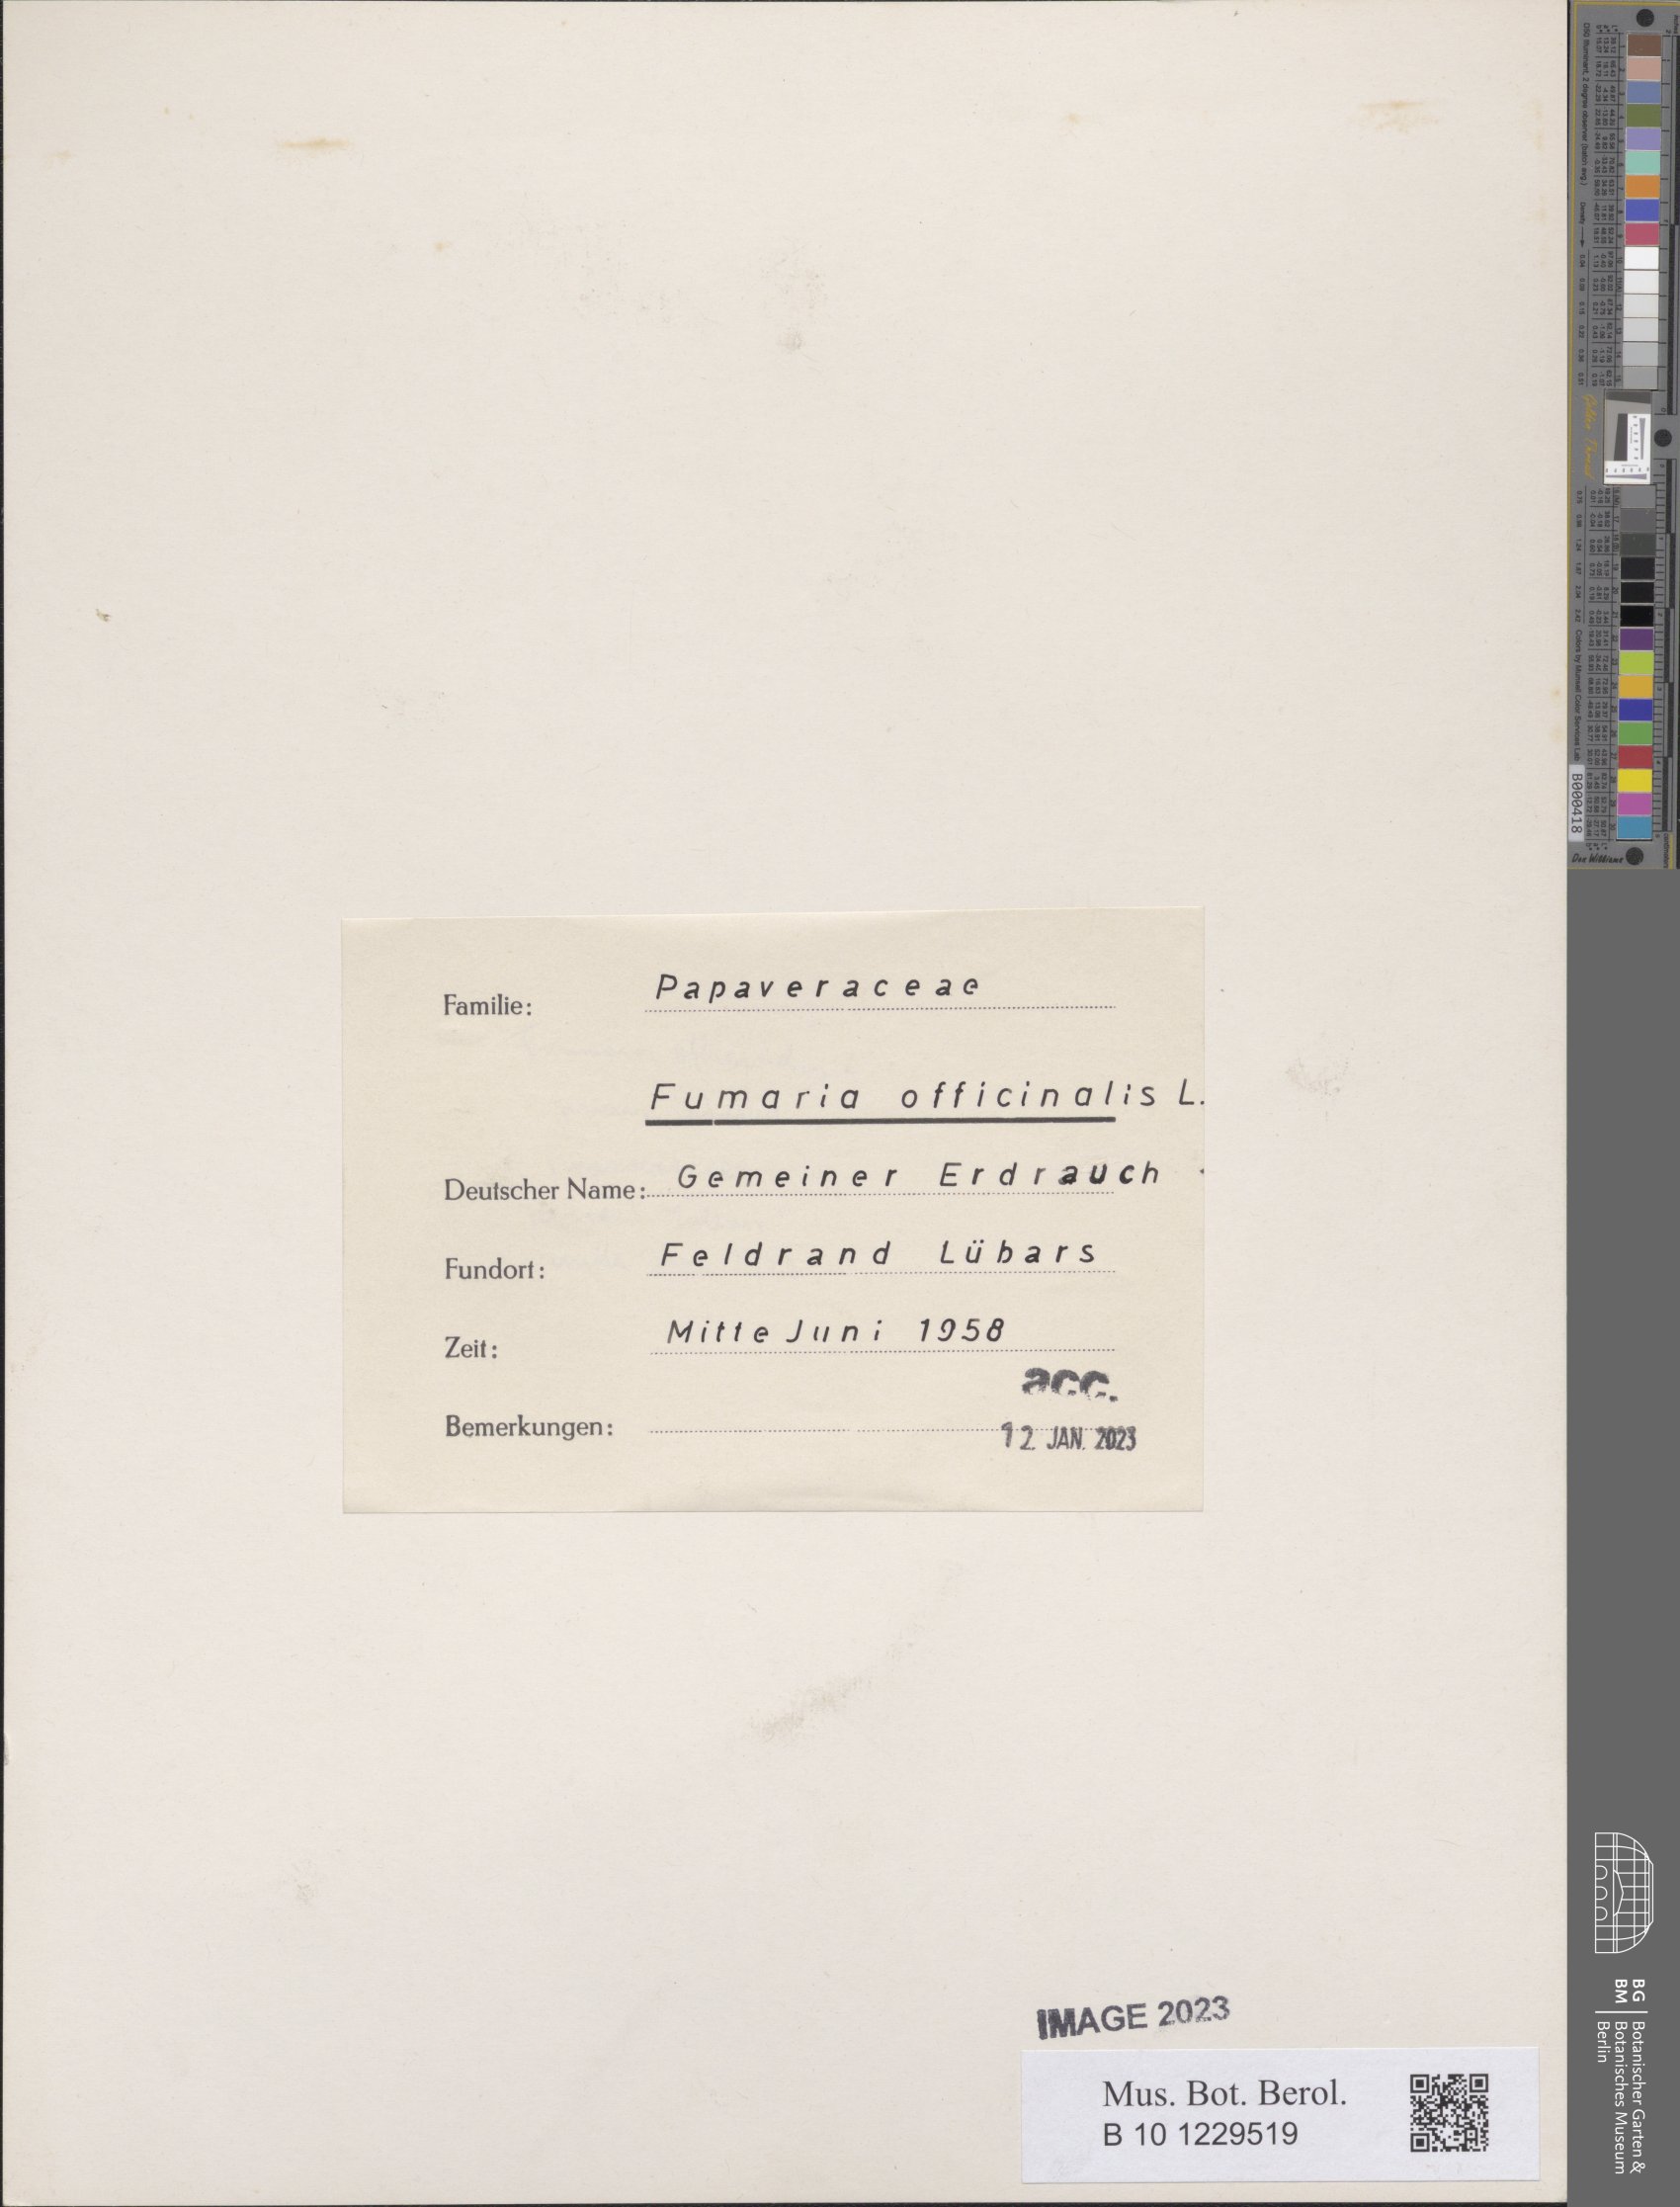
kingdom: Plantae
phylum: Tracheophyta
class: Magnoliopsida
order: Ranunculales
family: Papaveraceae
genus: Fumaria
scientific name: Fumaria officinalis
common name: Common fumitory
